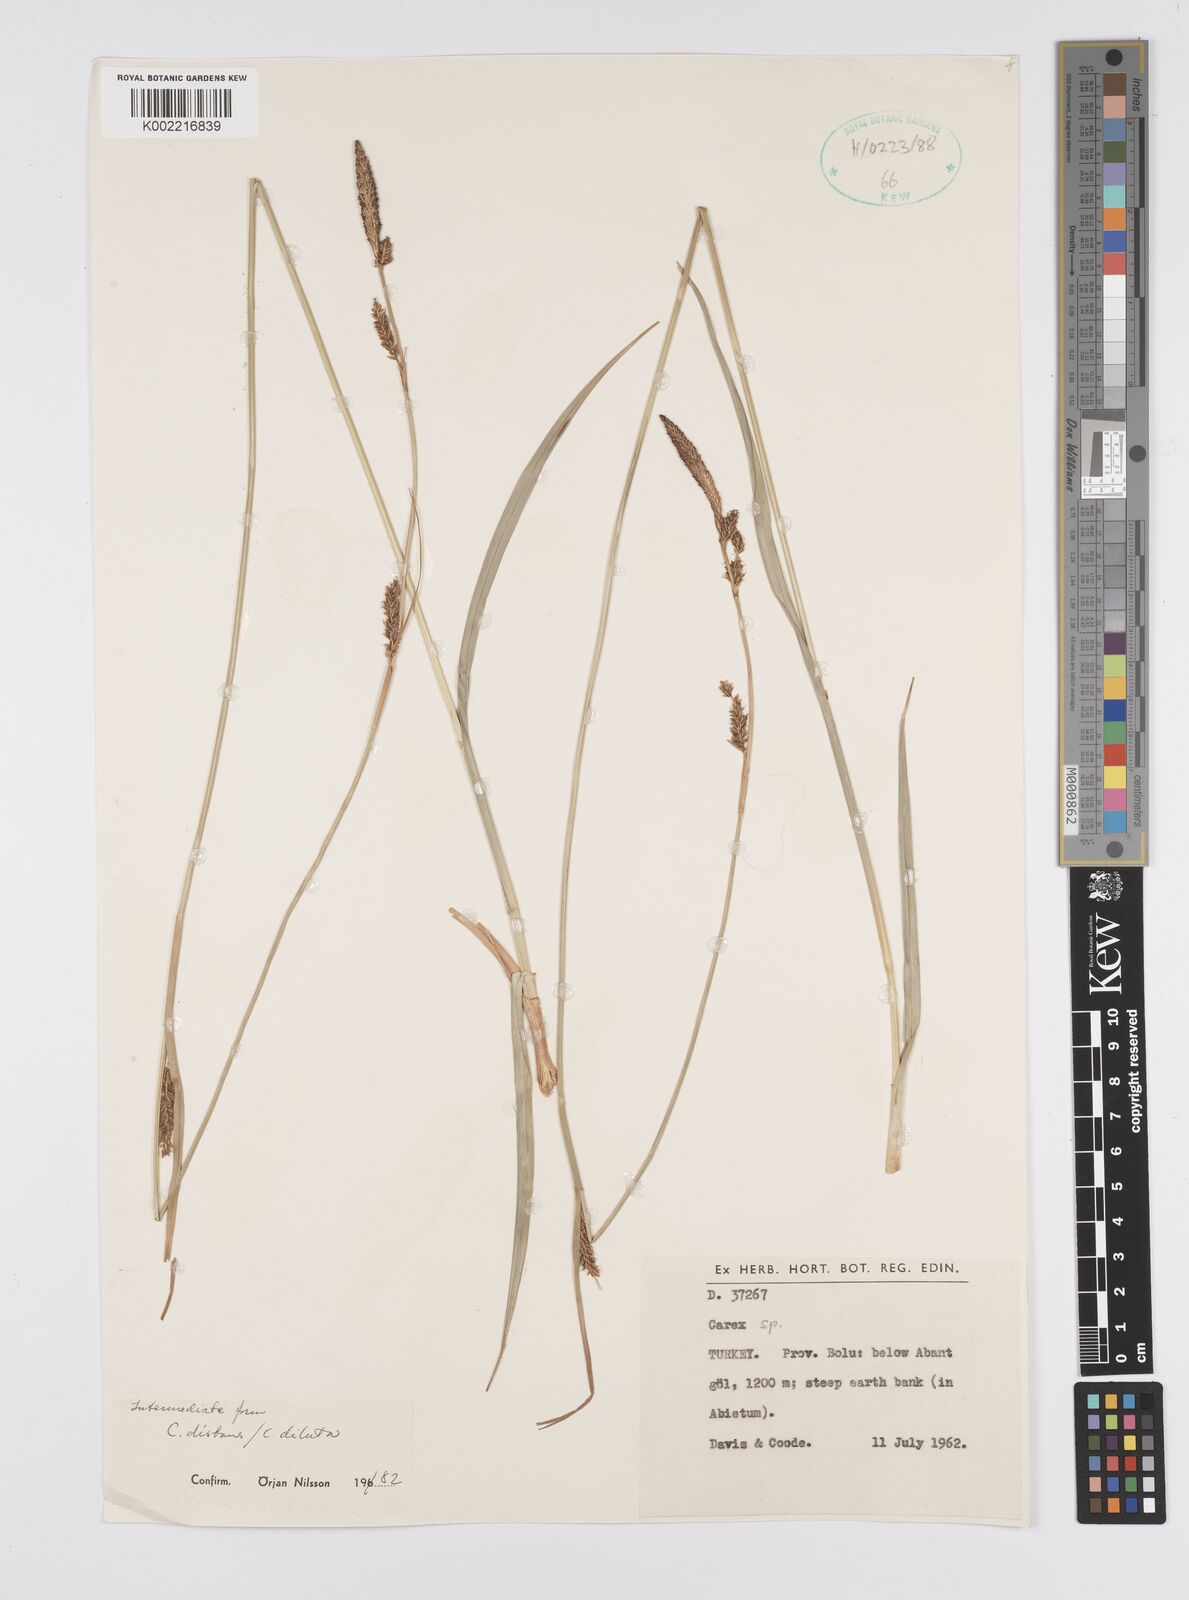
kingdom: Plantae
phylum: Tracheophyta
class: Liliopsida
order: Poales
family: Cyperaceae
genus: Carex
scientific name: Carex diluta
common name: Sedge
